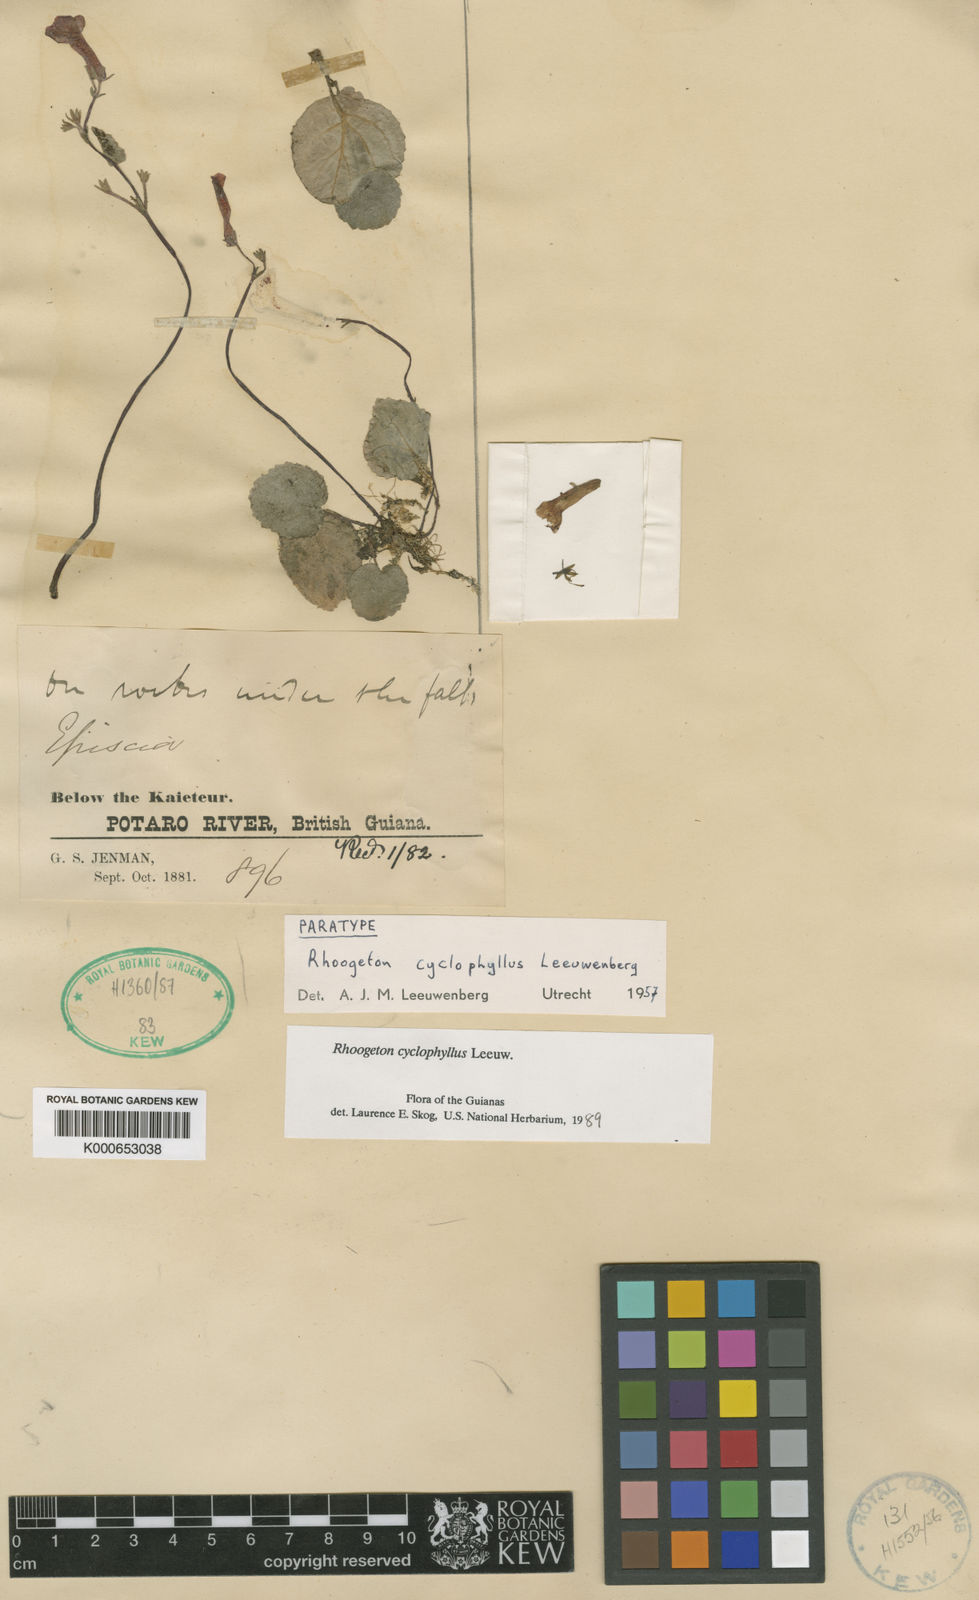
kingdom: Plantae
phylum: Tracheophyta
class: Magnoliopsida
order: Lamiales
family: Gesneriaceae
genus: Rhoogeton
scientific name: Rhoogeton cyclophyllus
